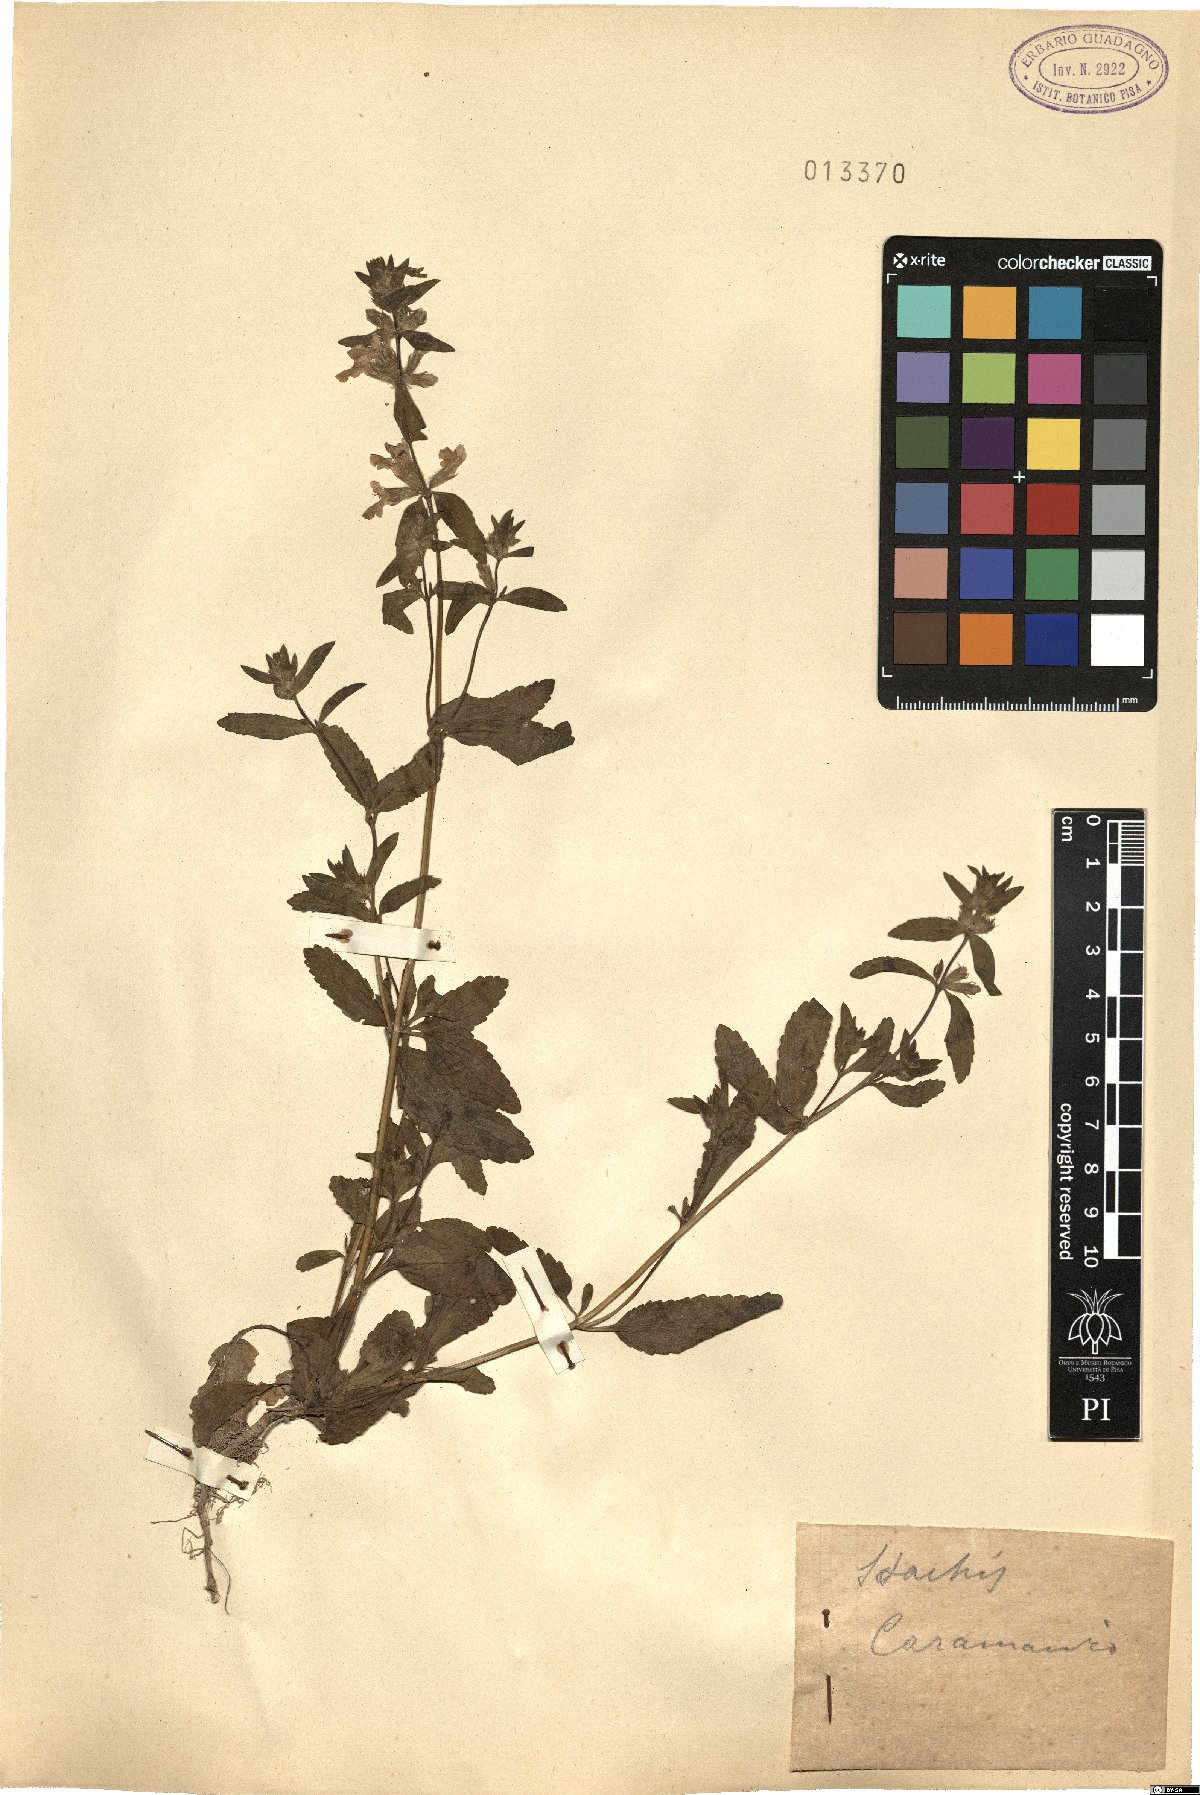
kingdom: Plantae
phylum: Tracheophyta
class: Magnoliopsida
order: Lamiales
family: Lamiaceae
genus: Stachys
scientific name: Stachys
